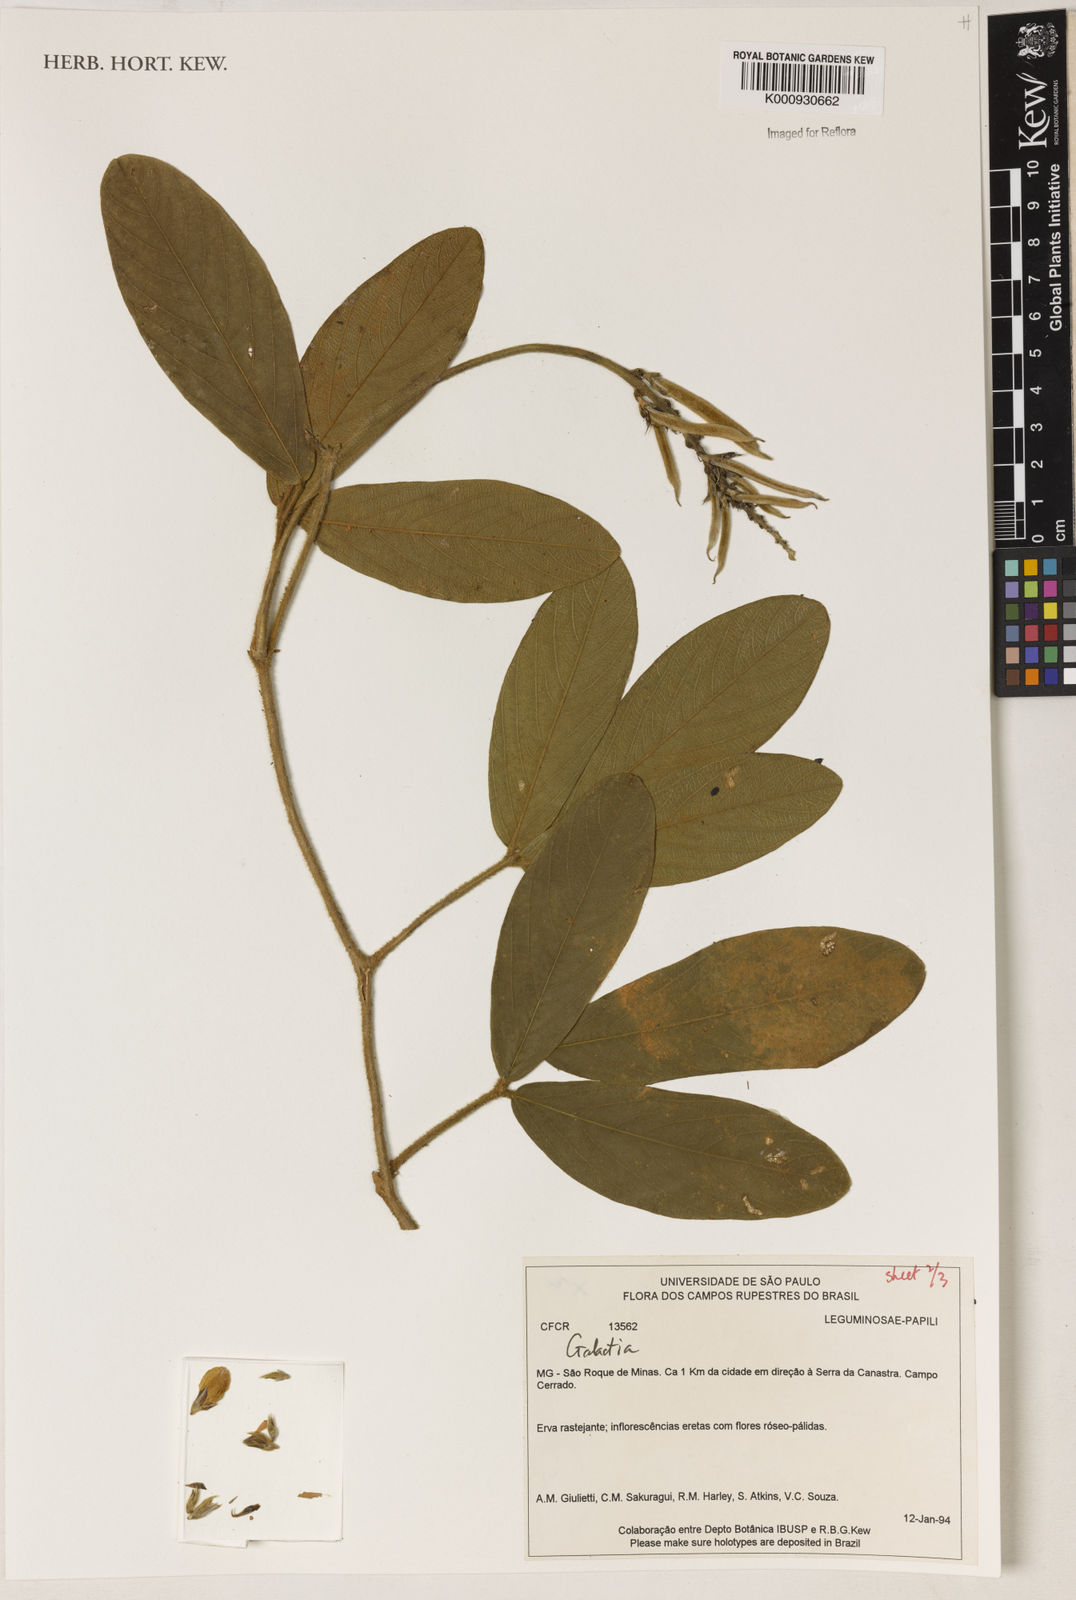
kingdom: Plantae
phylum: Tracheophyta
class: Magnoliopsida
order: Fabales
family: Fabaceae
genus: Galactia
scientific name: Galactia
